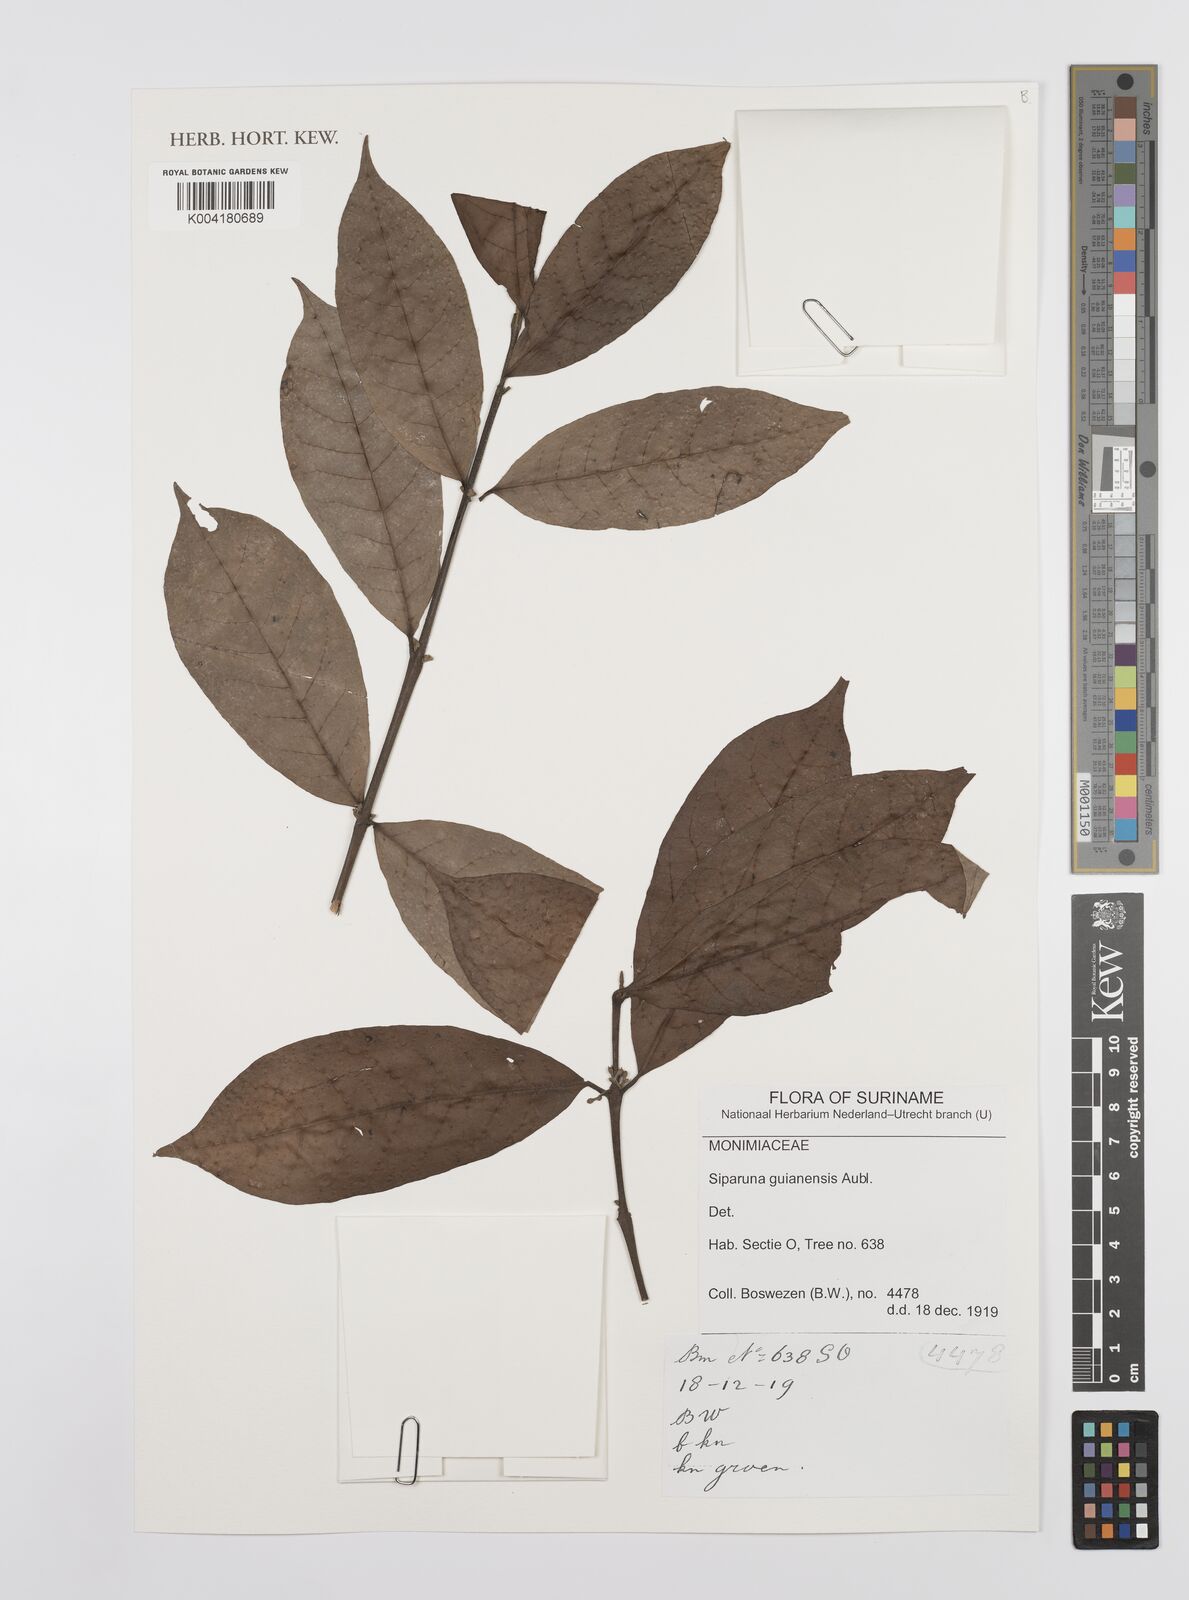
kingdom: Plantae
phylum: Tracheophyta
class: Magnoliopsida
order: Laurales
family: Siparunaceae
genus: Siparuna
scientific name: Siparuna guianensis
